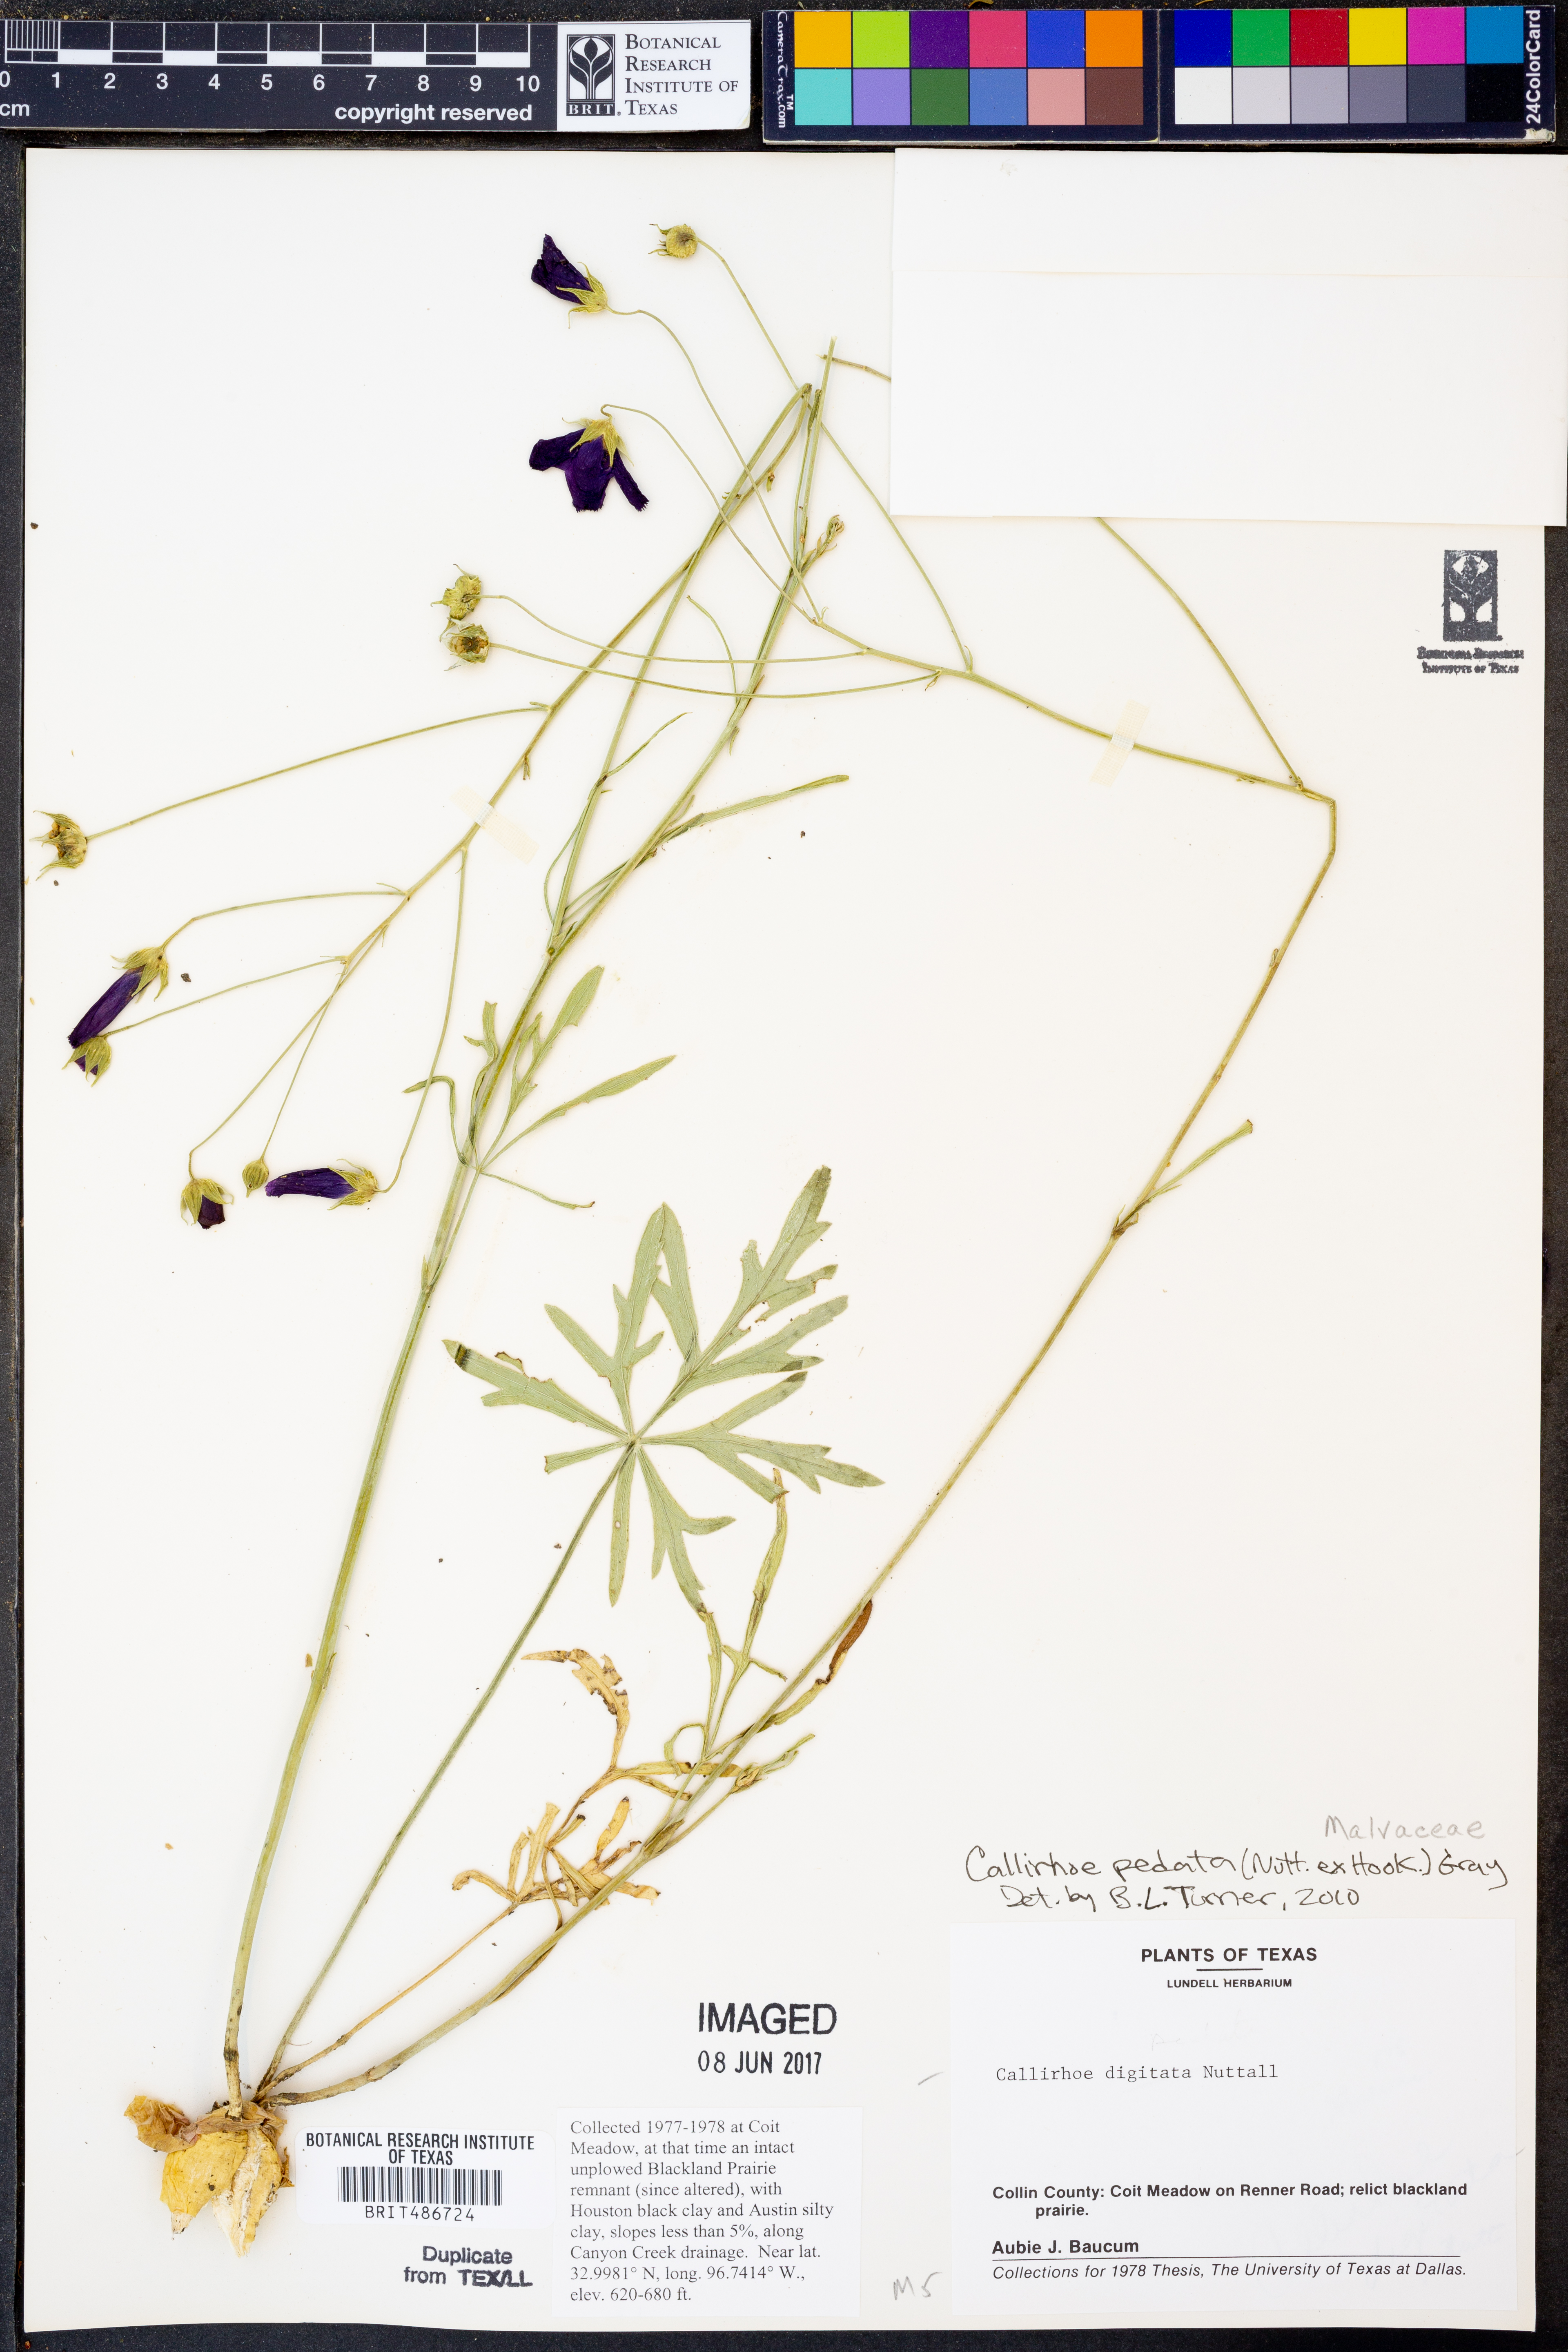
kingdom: Plantae
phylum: Tracheophyta
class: Magnoliopsida
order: Malvales
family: Malvaceae
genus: Callirhoe
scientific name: Callirhoe pedata
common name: Finger poppy-mallow
